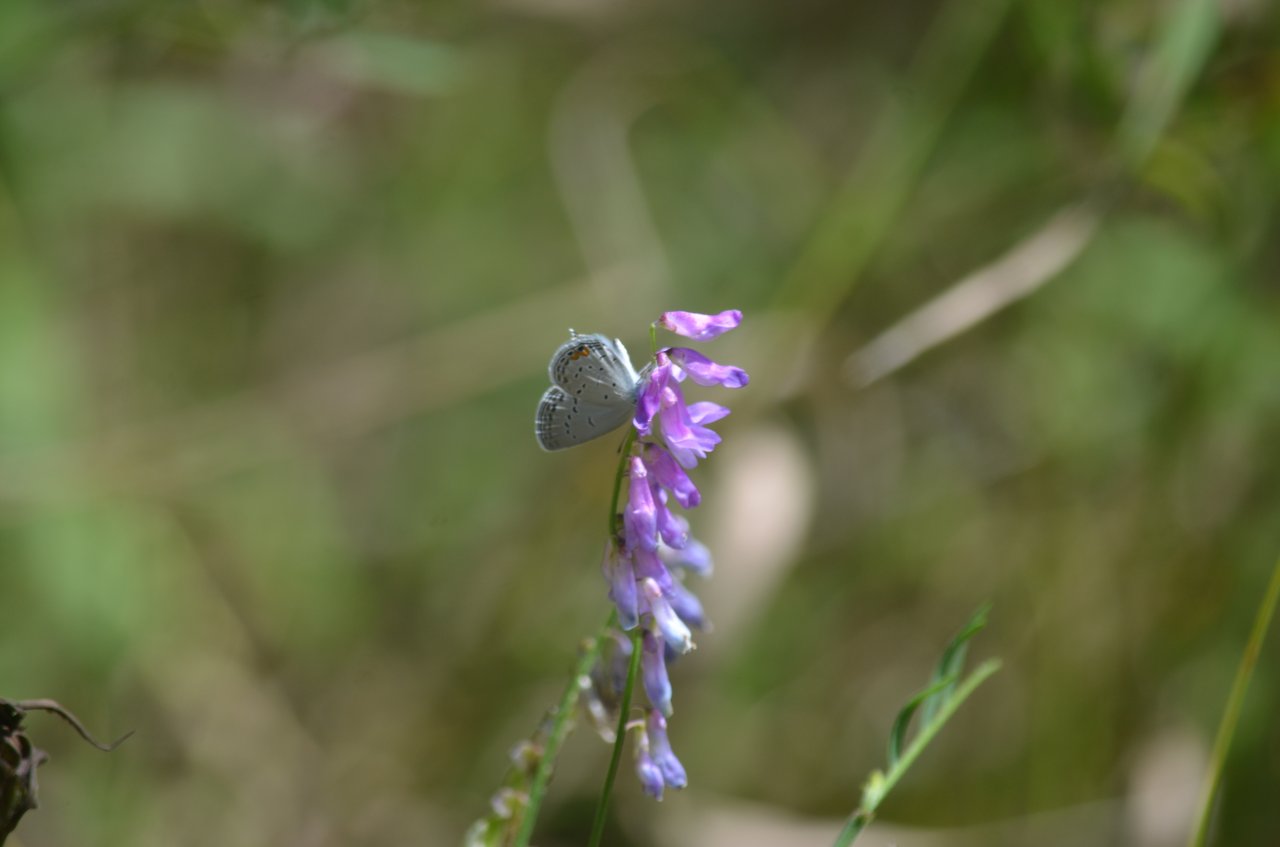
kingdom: Animalia
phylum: Arthropoda
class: Insecta
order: Lepidoptera
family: Lycaenidae
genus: Elkalyce
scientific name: Elkalyce comyntas
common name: Eastern Tailed-Blue
